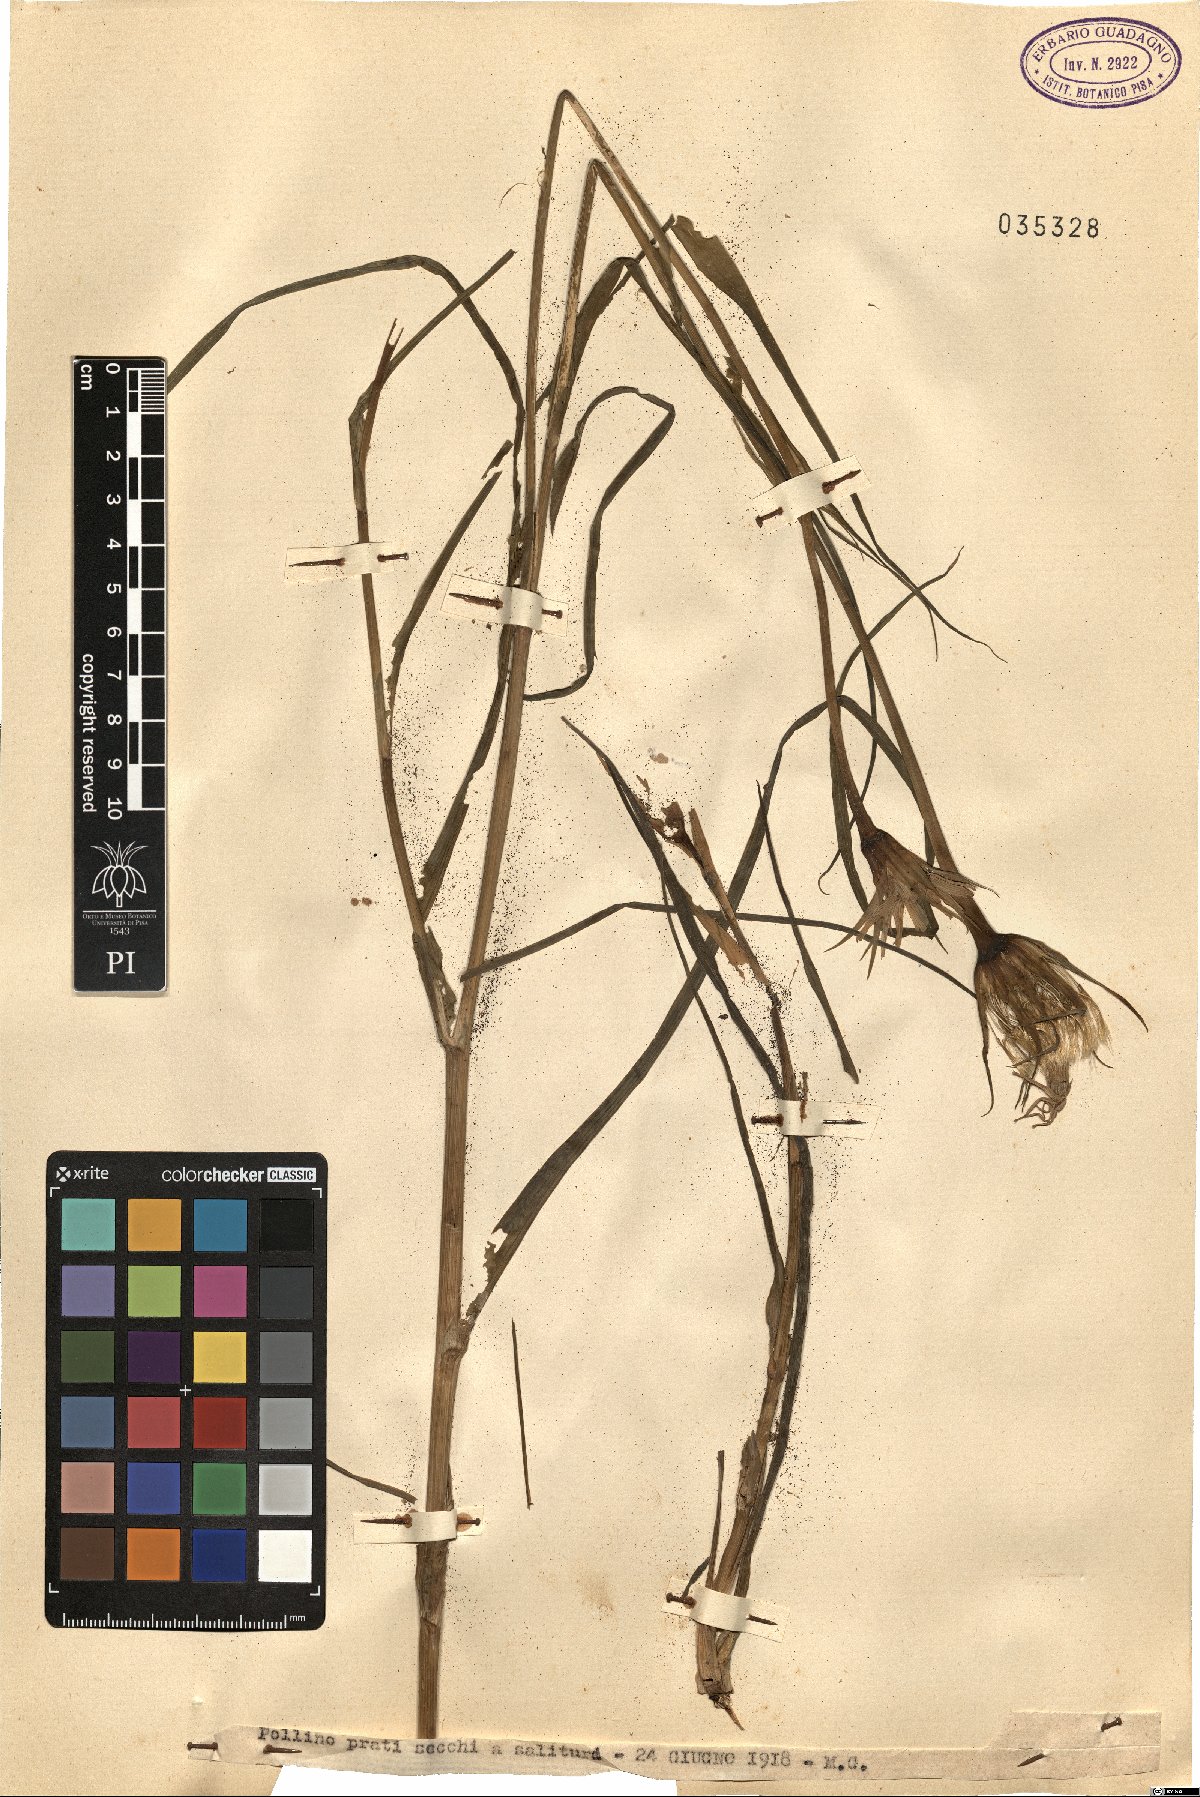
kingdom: Plantae
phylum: Tracheophyta
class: Magnoliopsida
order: Asterales
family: Asteraceae
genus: Geropogon
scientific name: Geropogon
